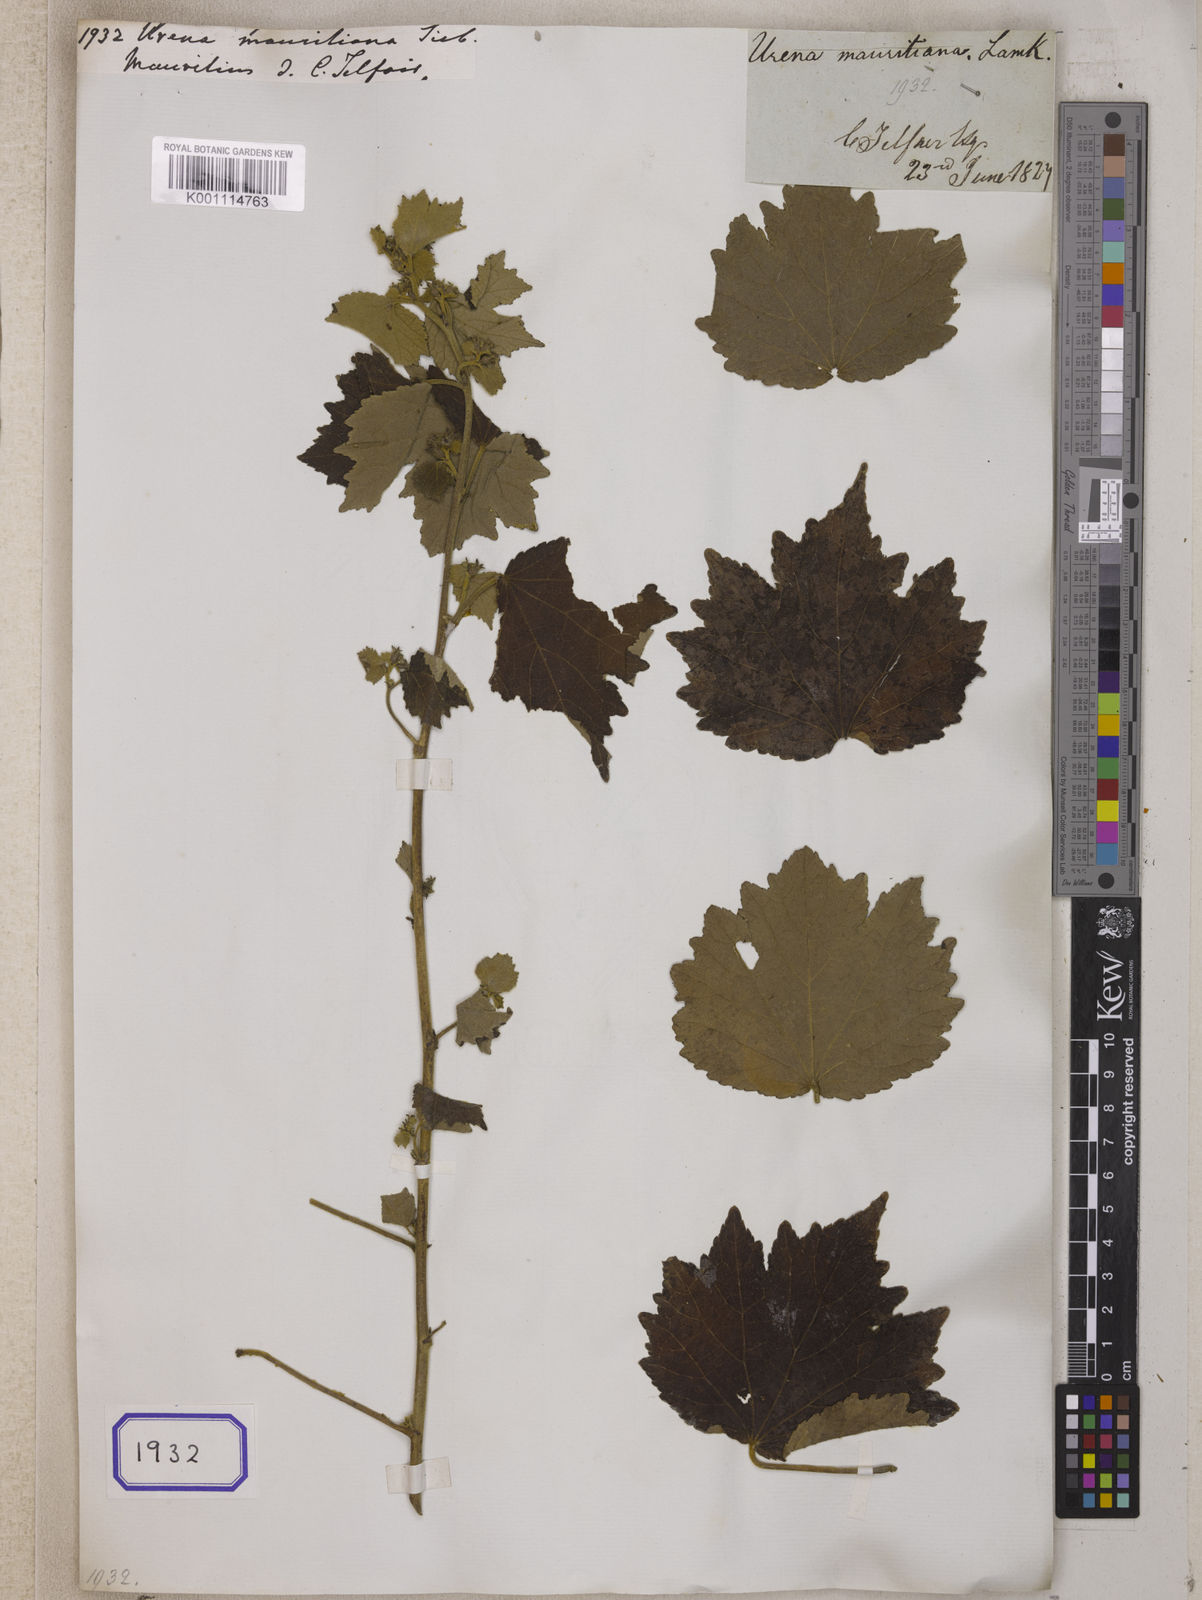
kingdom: Plantae
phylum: Tracheophyta
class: Magnoliopsida
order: Malvales
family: Malvaceae
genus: Urena
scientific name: Urena
